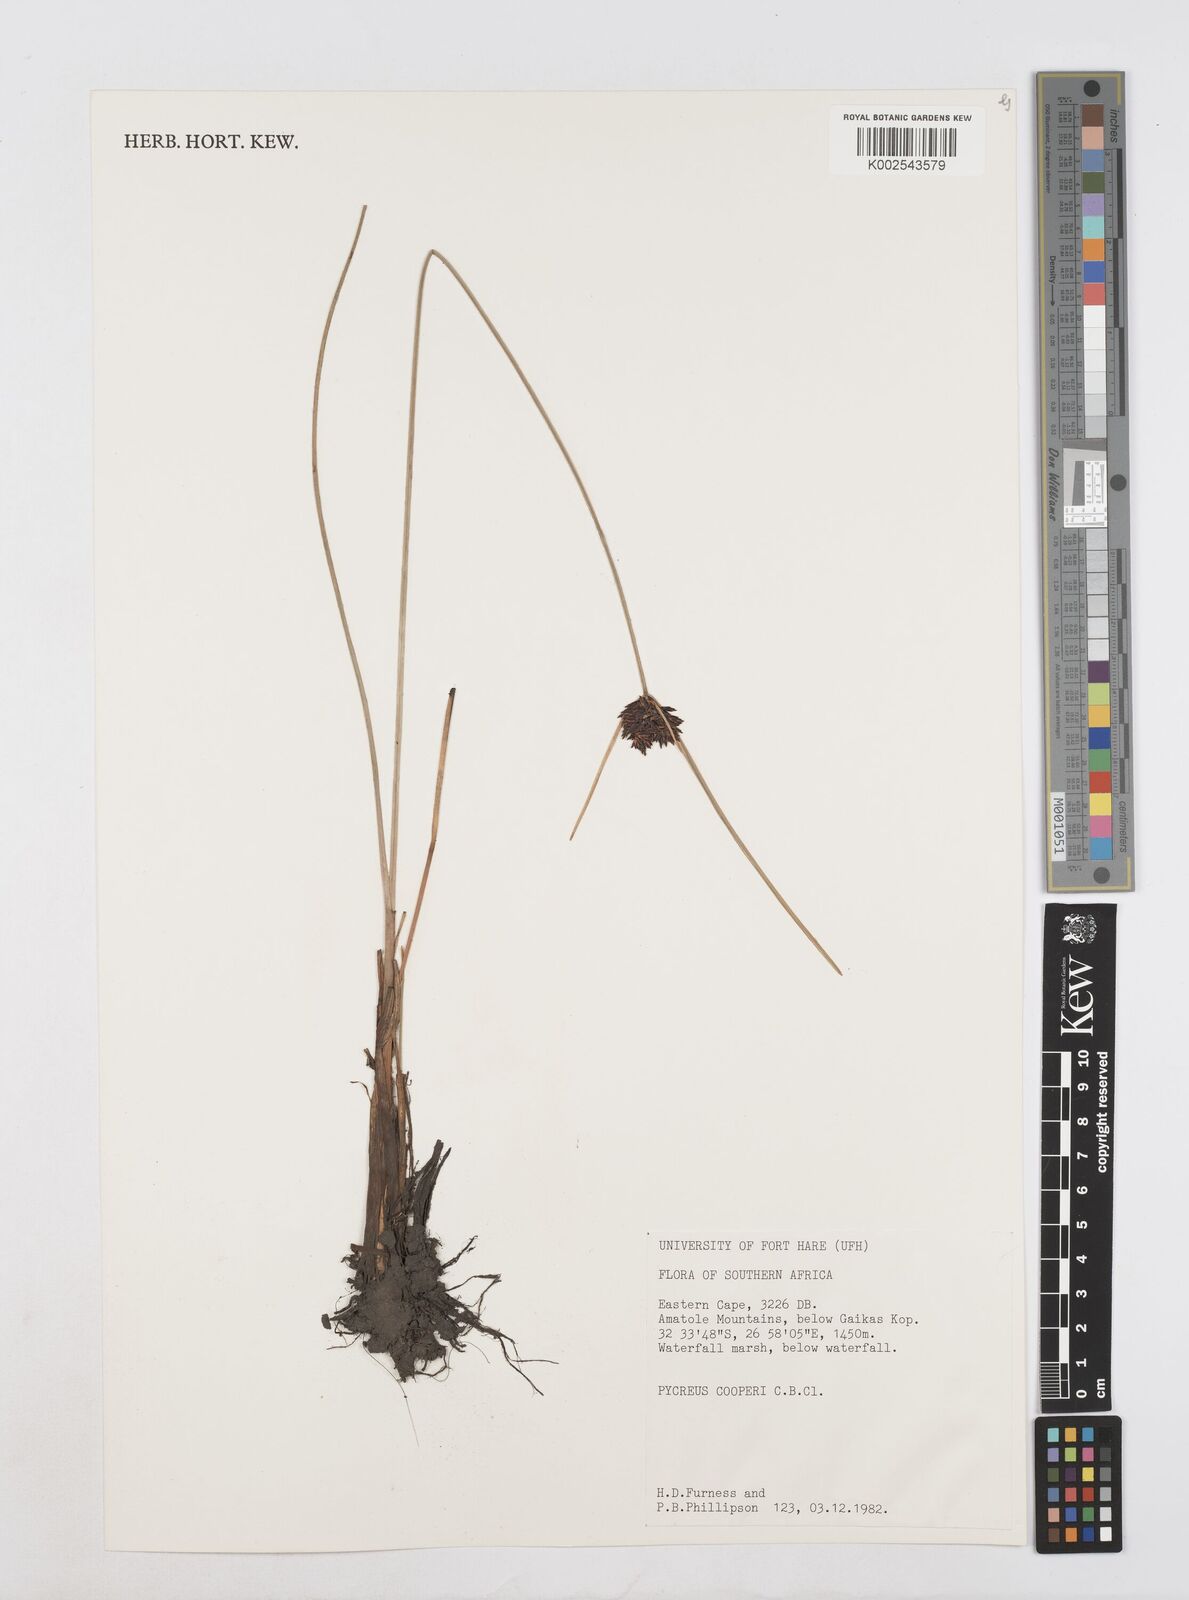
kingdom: Plantae
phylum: Tracheophyta
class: Liliopsida
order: Poales
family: Cyperaceae
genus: Cyperus
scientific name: Cyperus
